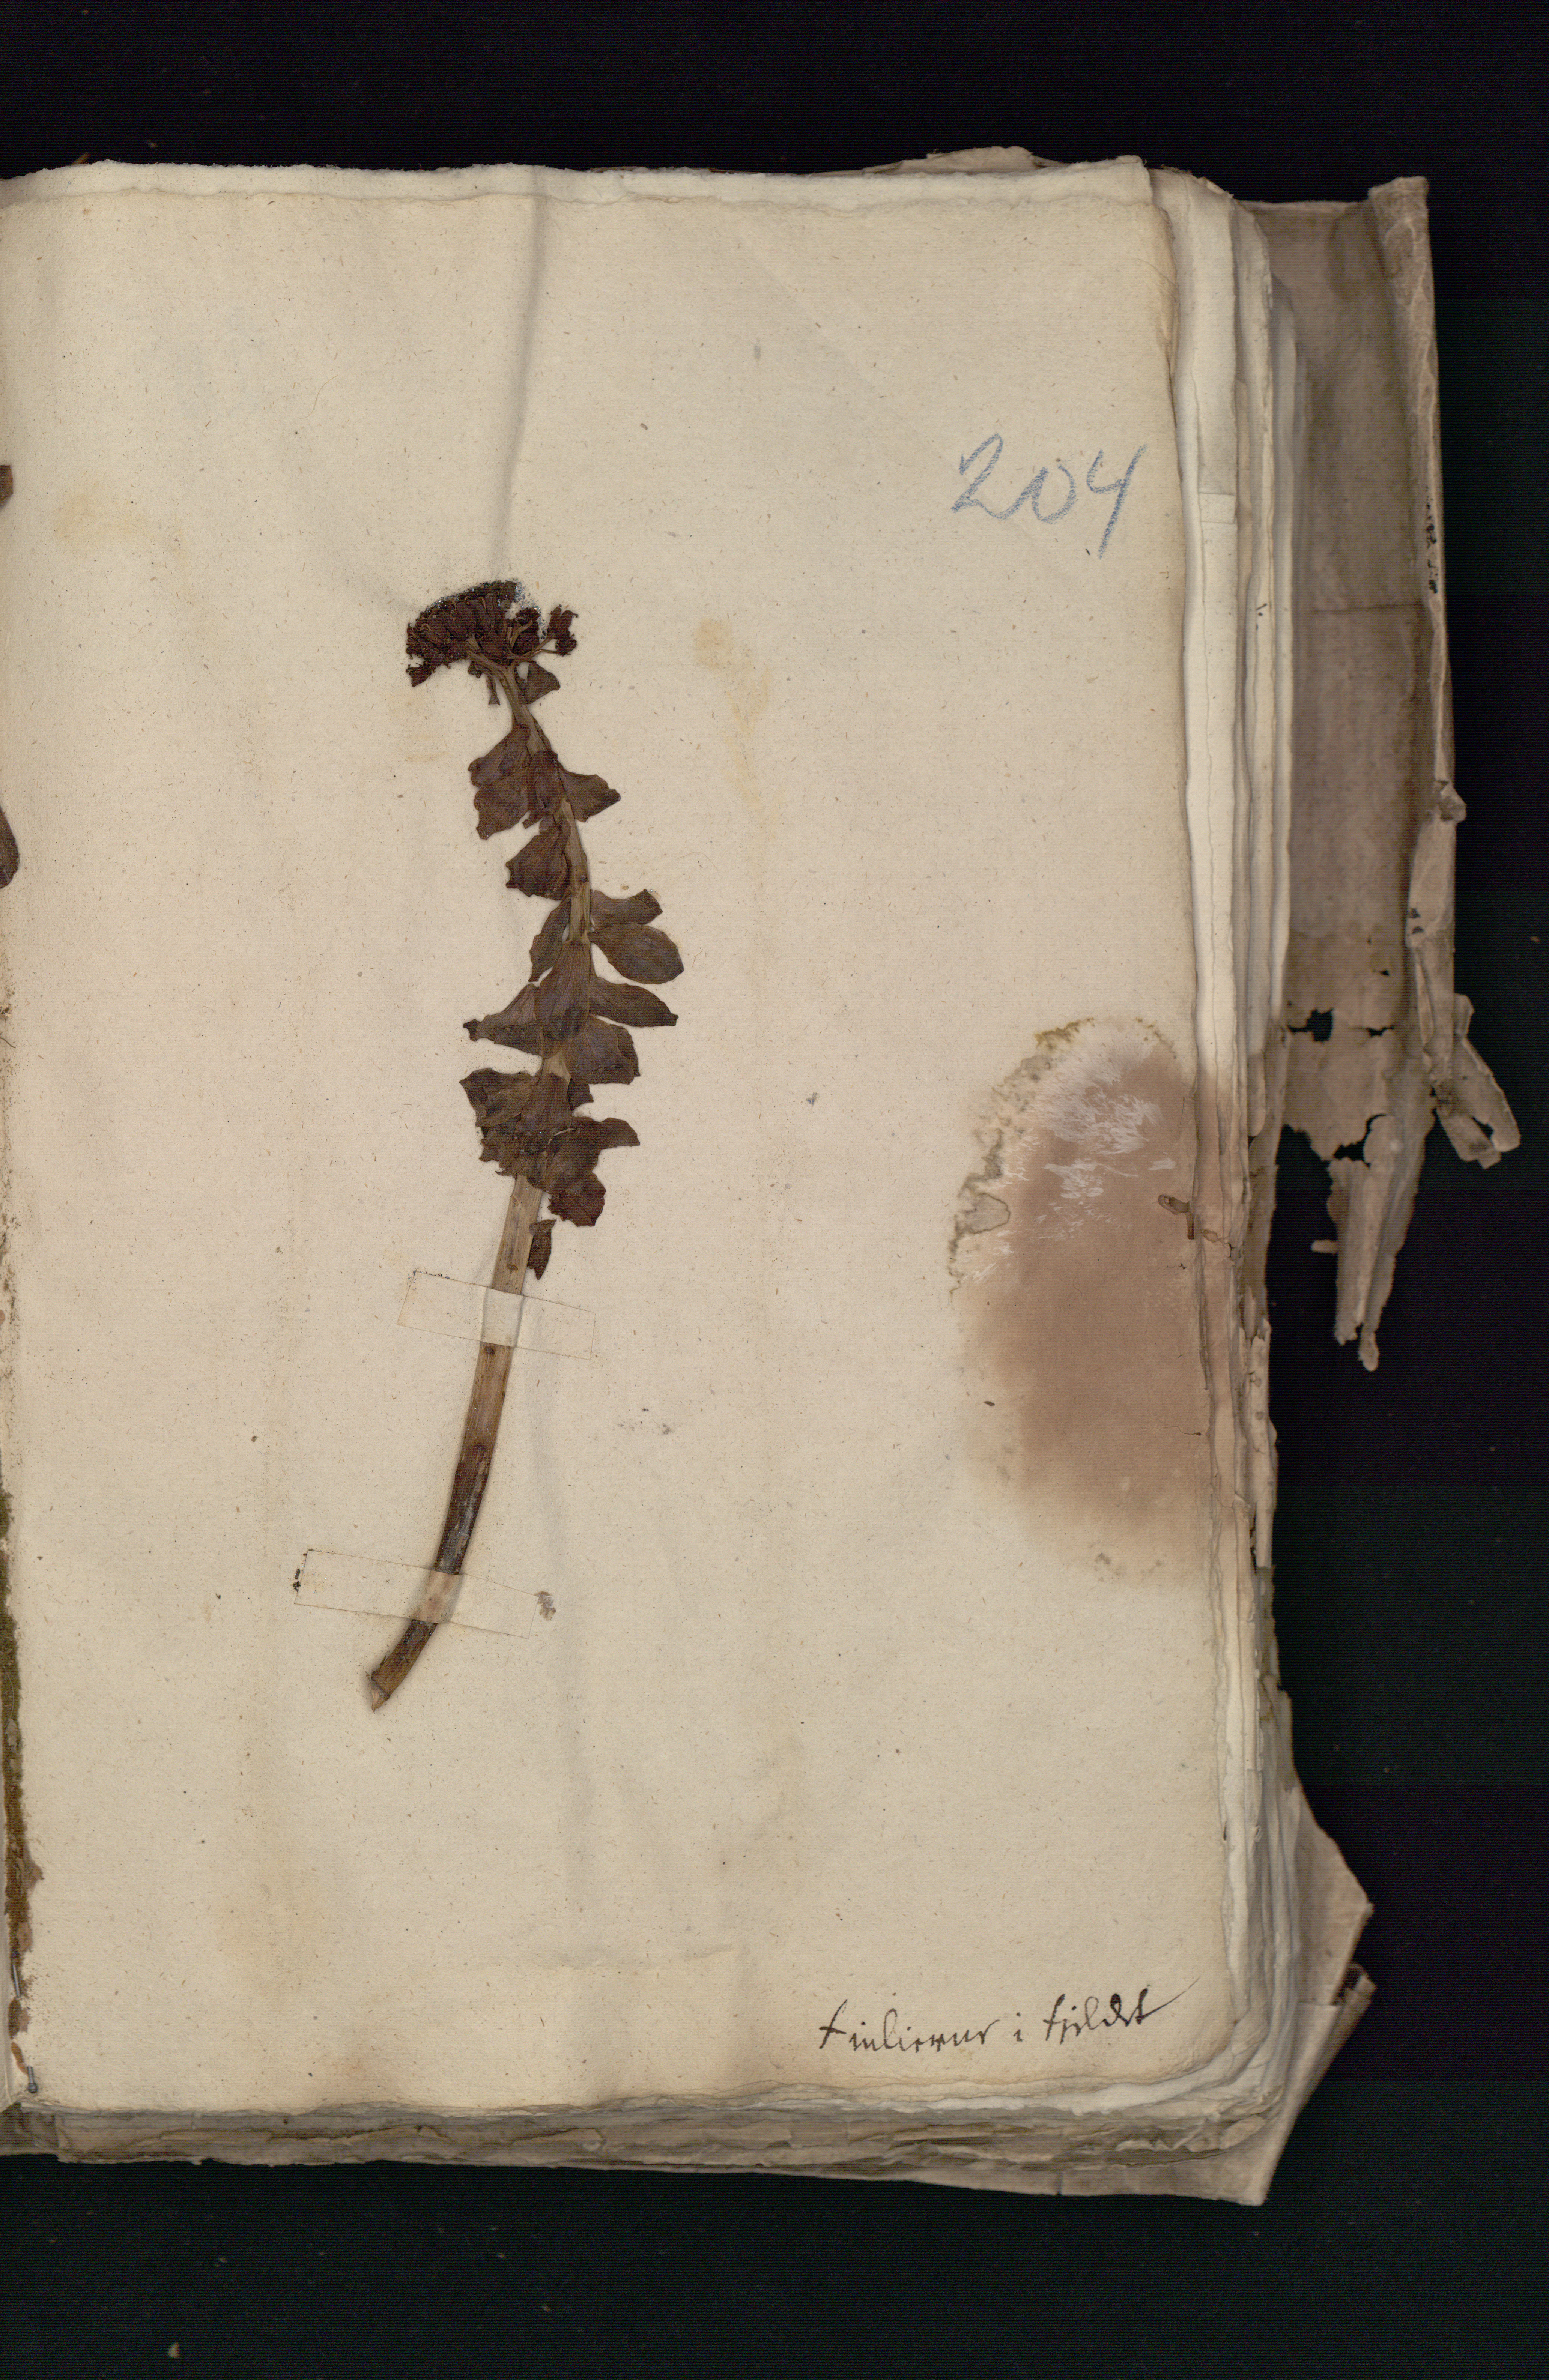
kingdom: Plantae
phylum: Tracheophyta
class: Magnoliopsida
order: Saxifragales
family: Crassulaceae
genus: Rhodiola
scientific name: Rhodiola rosea
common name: Roseroot
